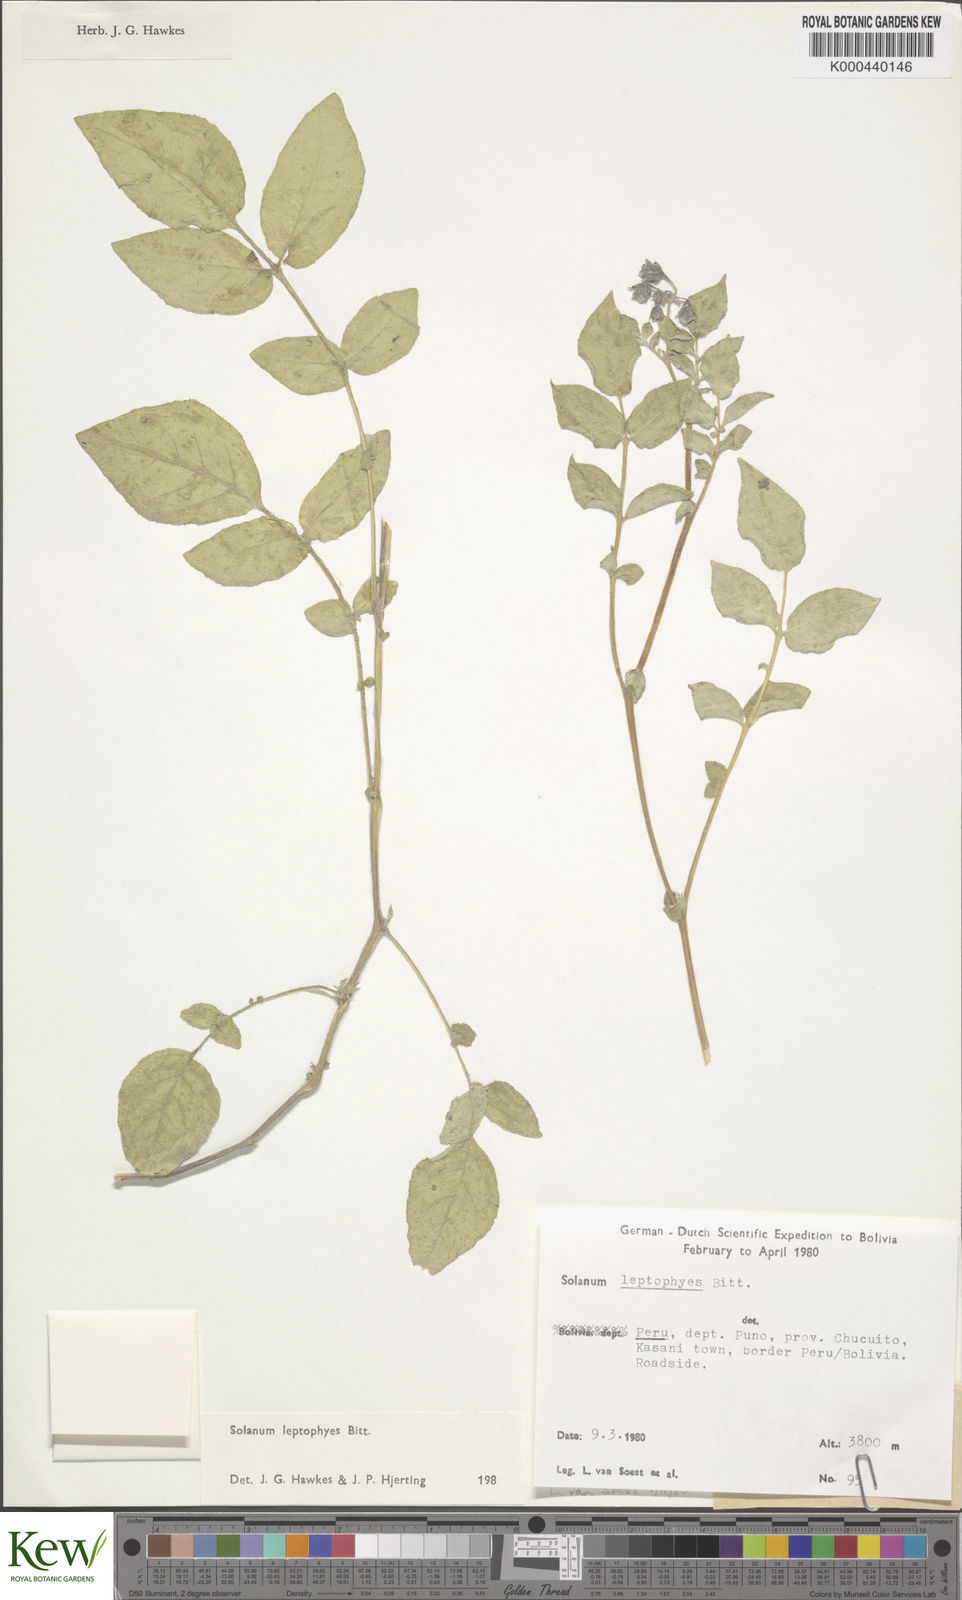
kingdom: Plantae
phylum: Tracheophyta
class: Magnoliopsida
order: Solanales
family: Solanaceae
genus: Solanum
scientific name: Solanum candolleanum
